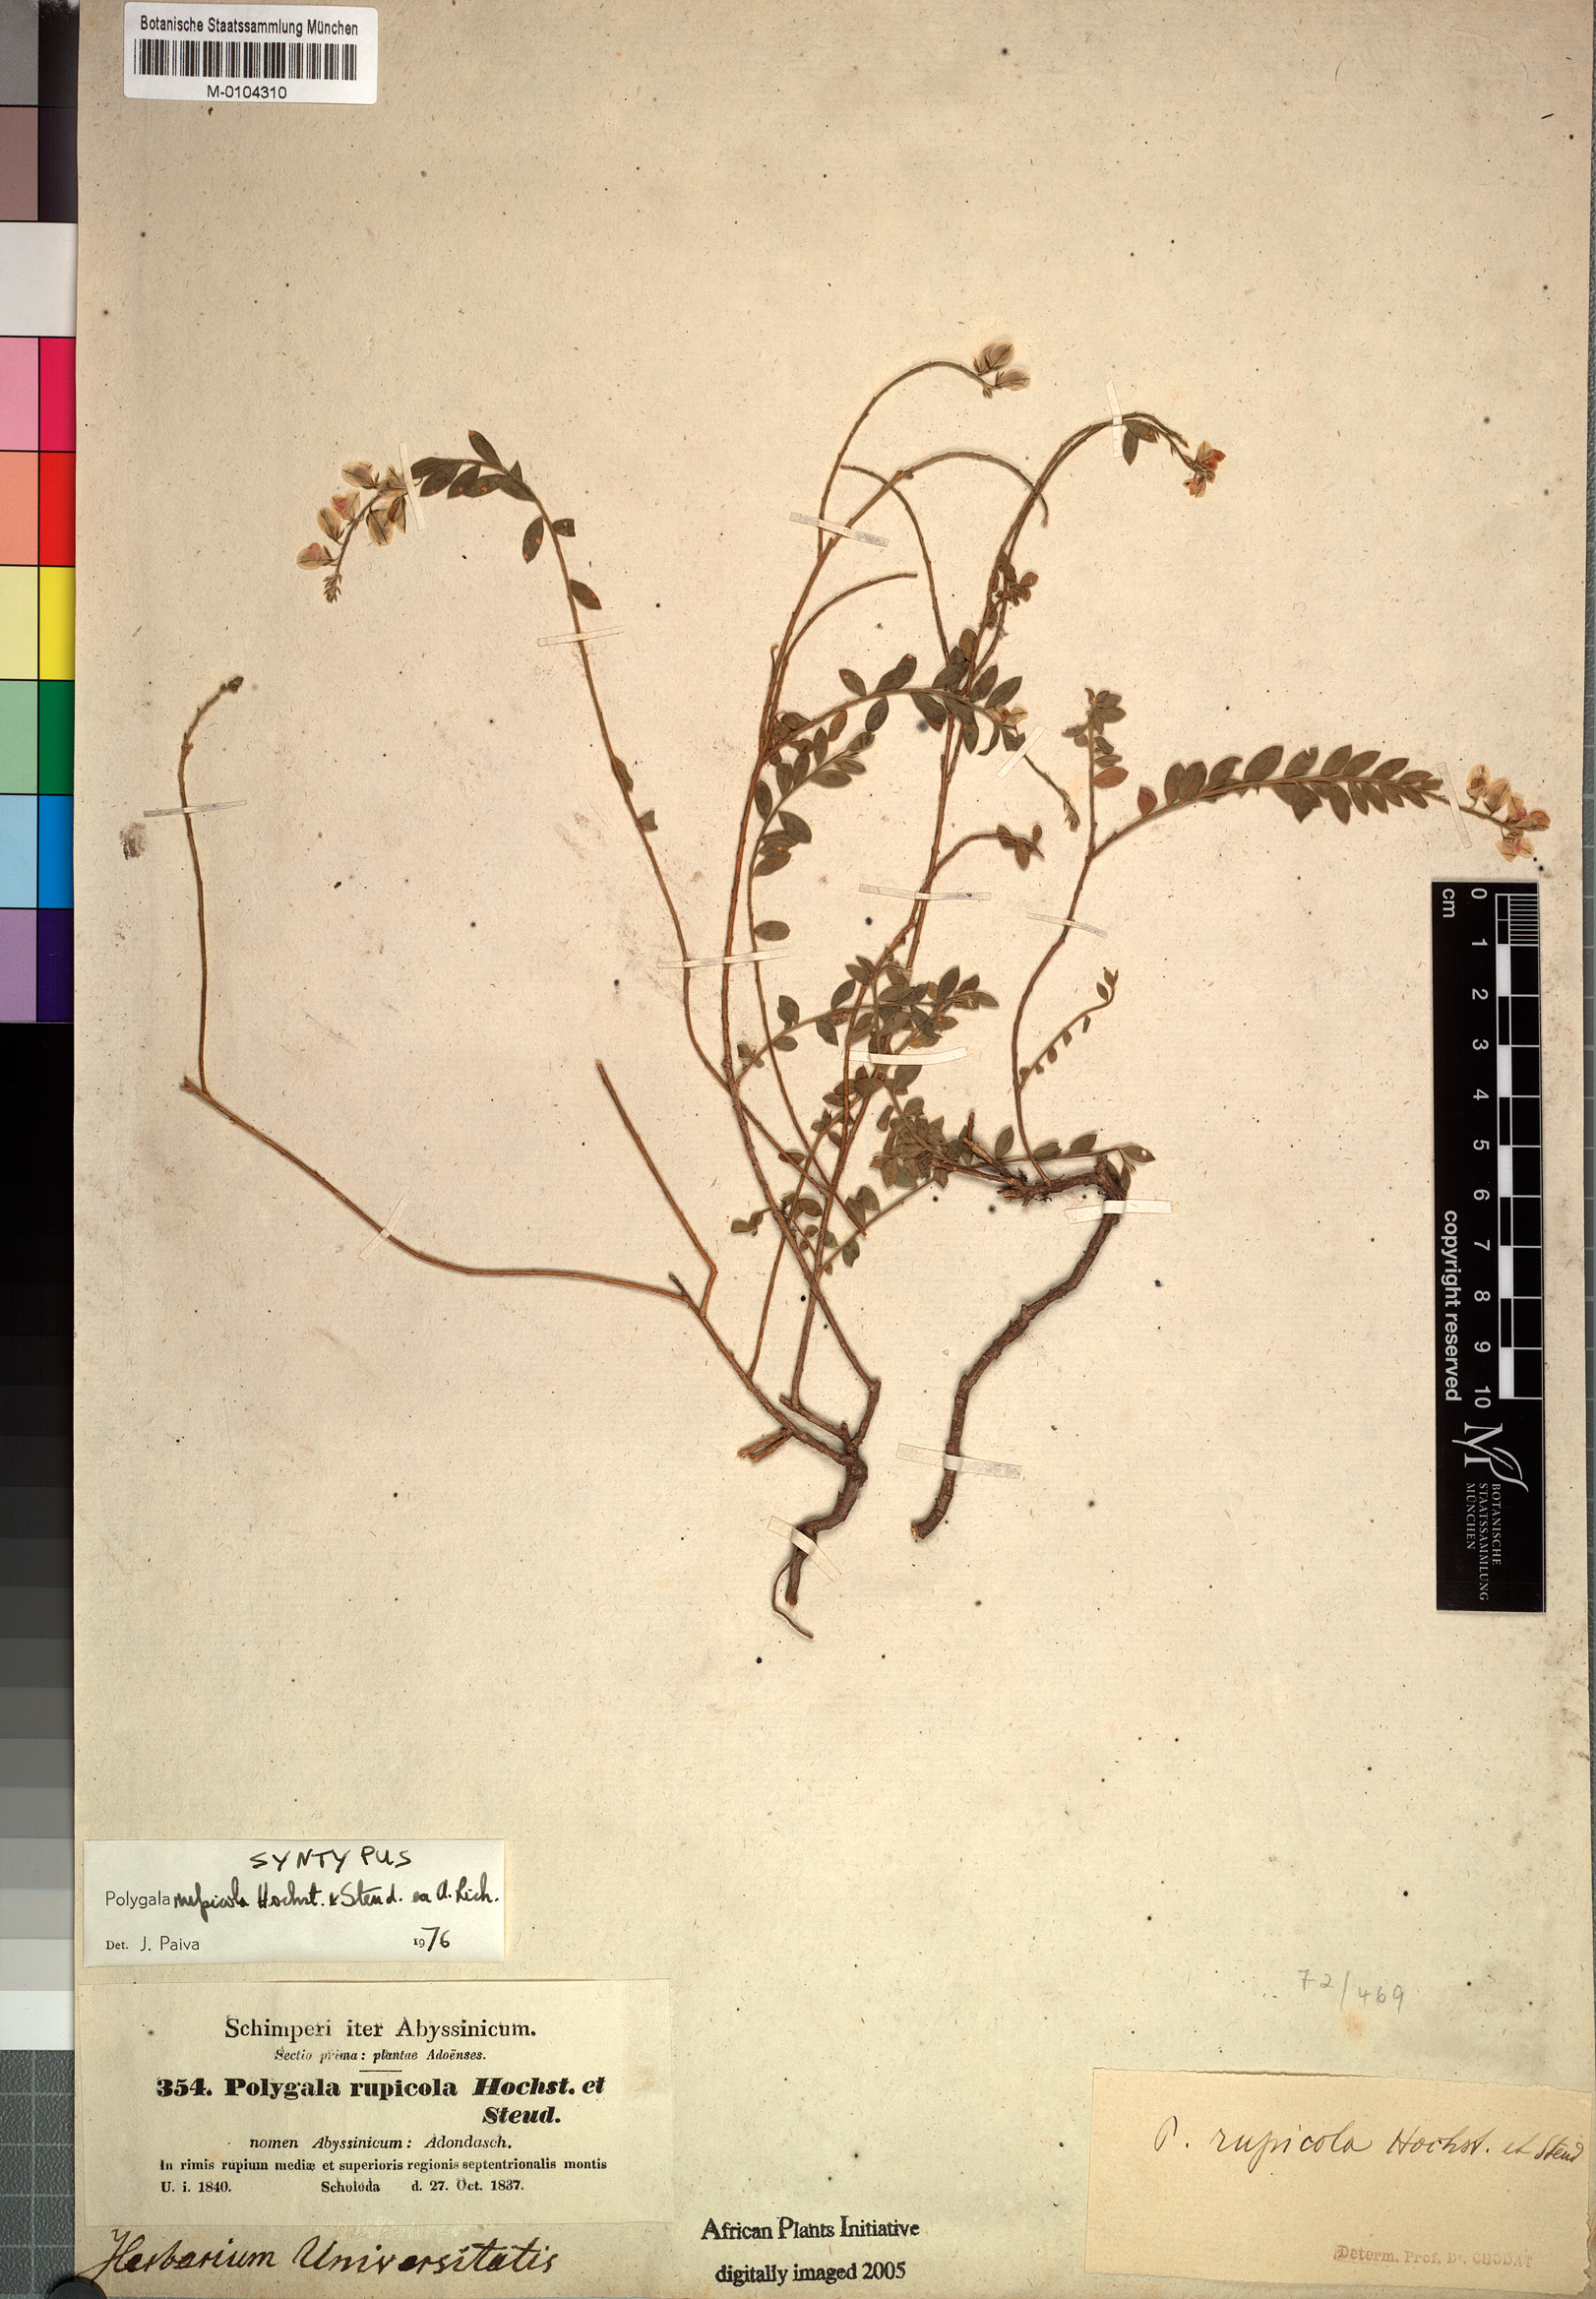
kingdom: Plantae
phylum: Tracheophyta
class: Magnoliopsida
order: Fabales
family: Polygalaceae
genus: Polygala
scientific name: Polygala rupicola
